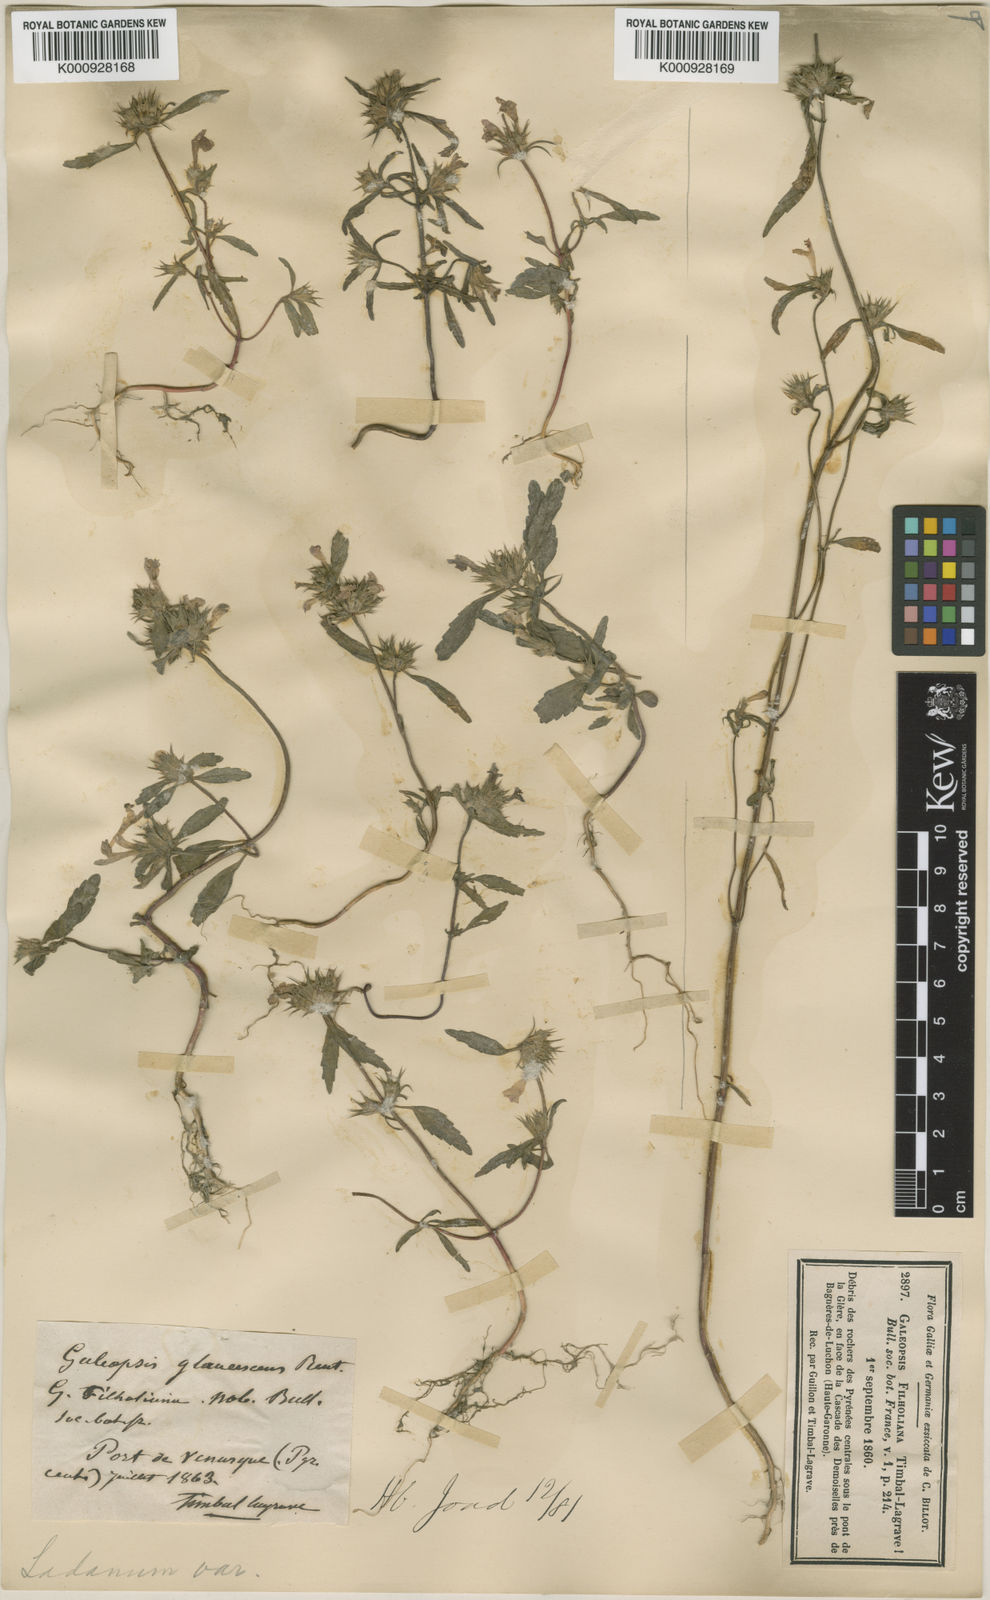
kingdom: Plantae
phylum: Tracheophyta
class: Magnoliopsida
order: Lamiales
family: Lamiaceae
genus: Galeopsis
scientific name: Galeopsis
